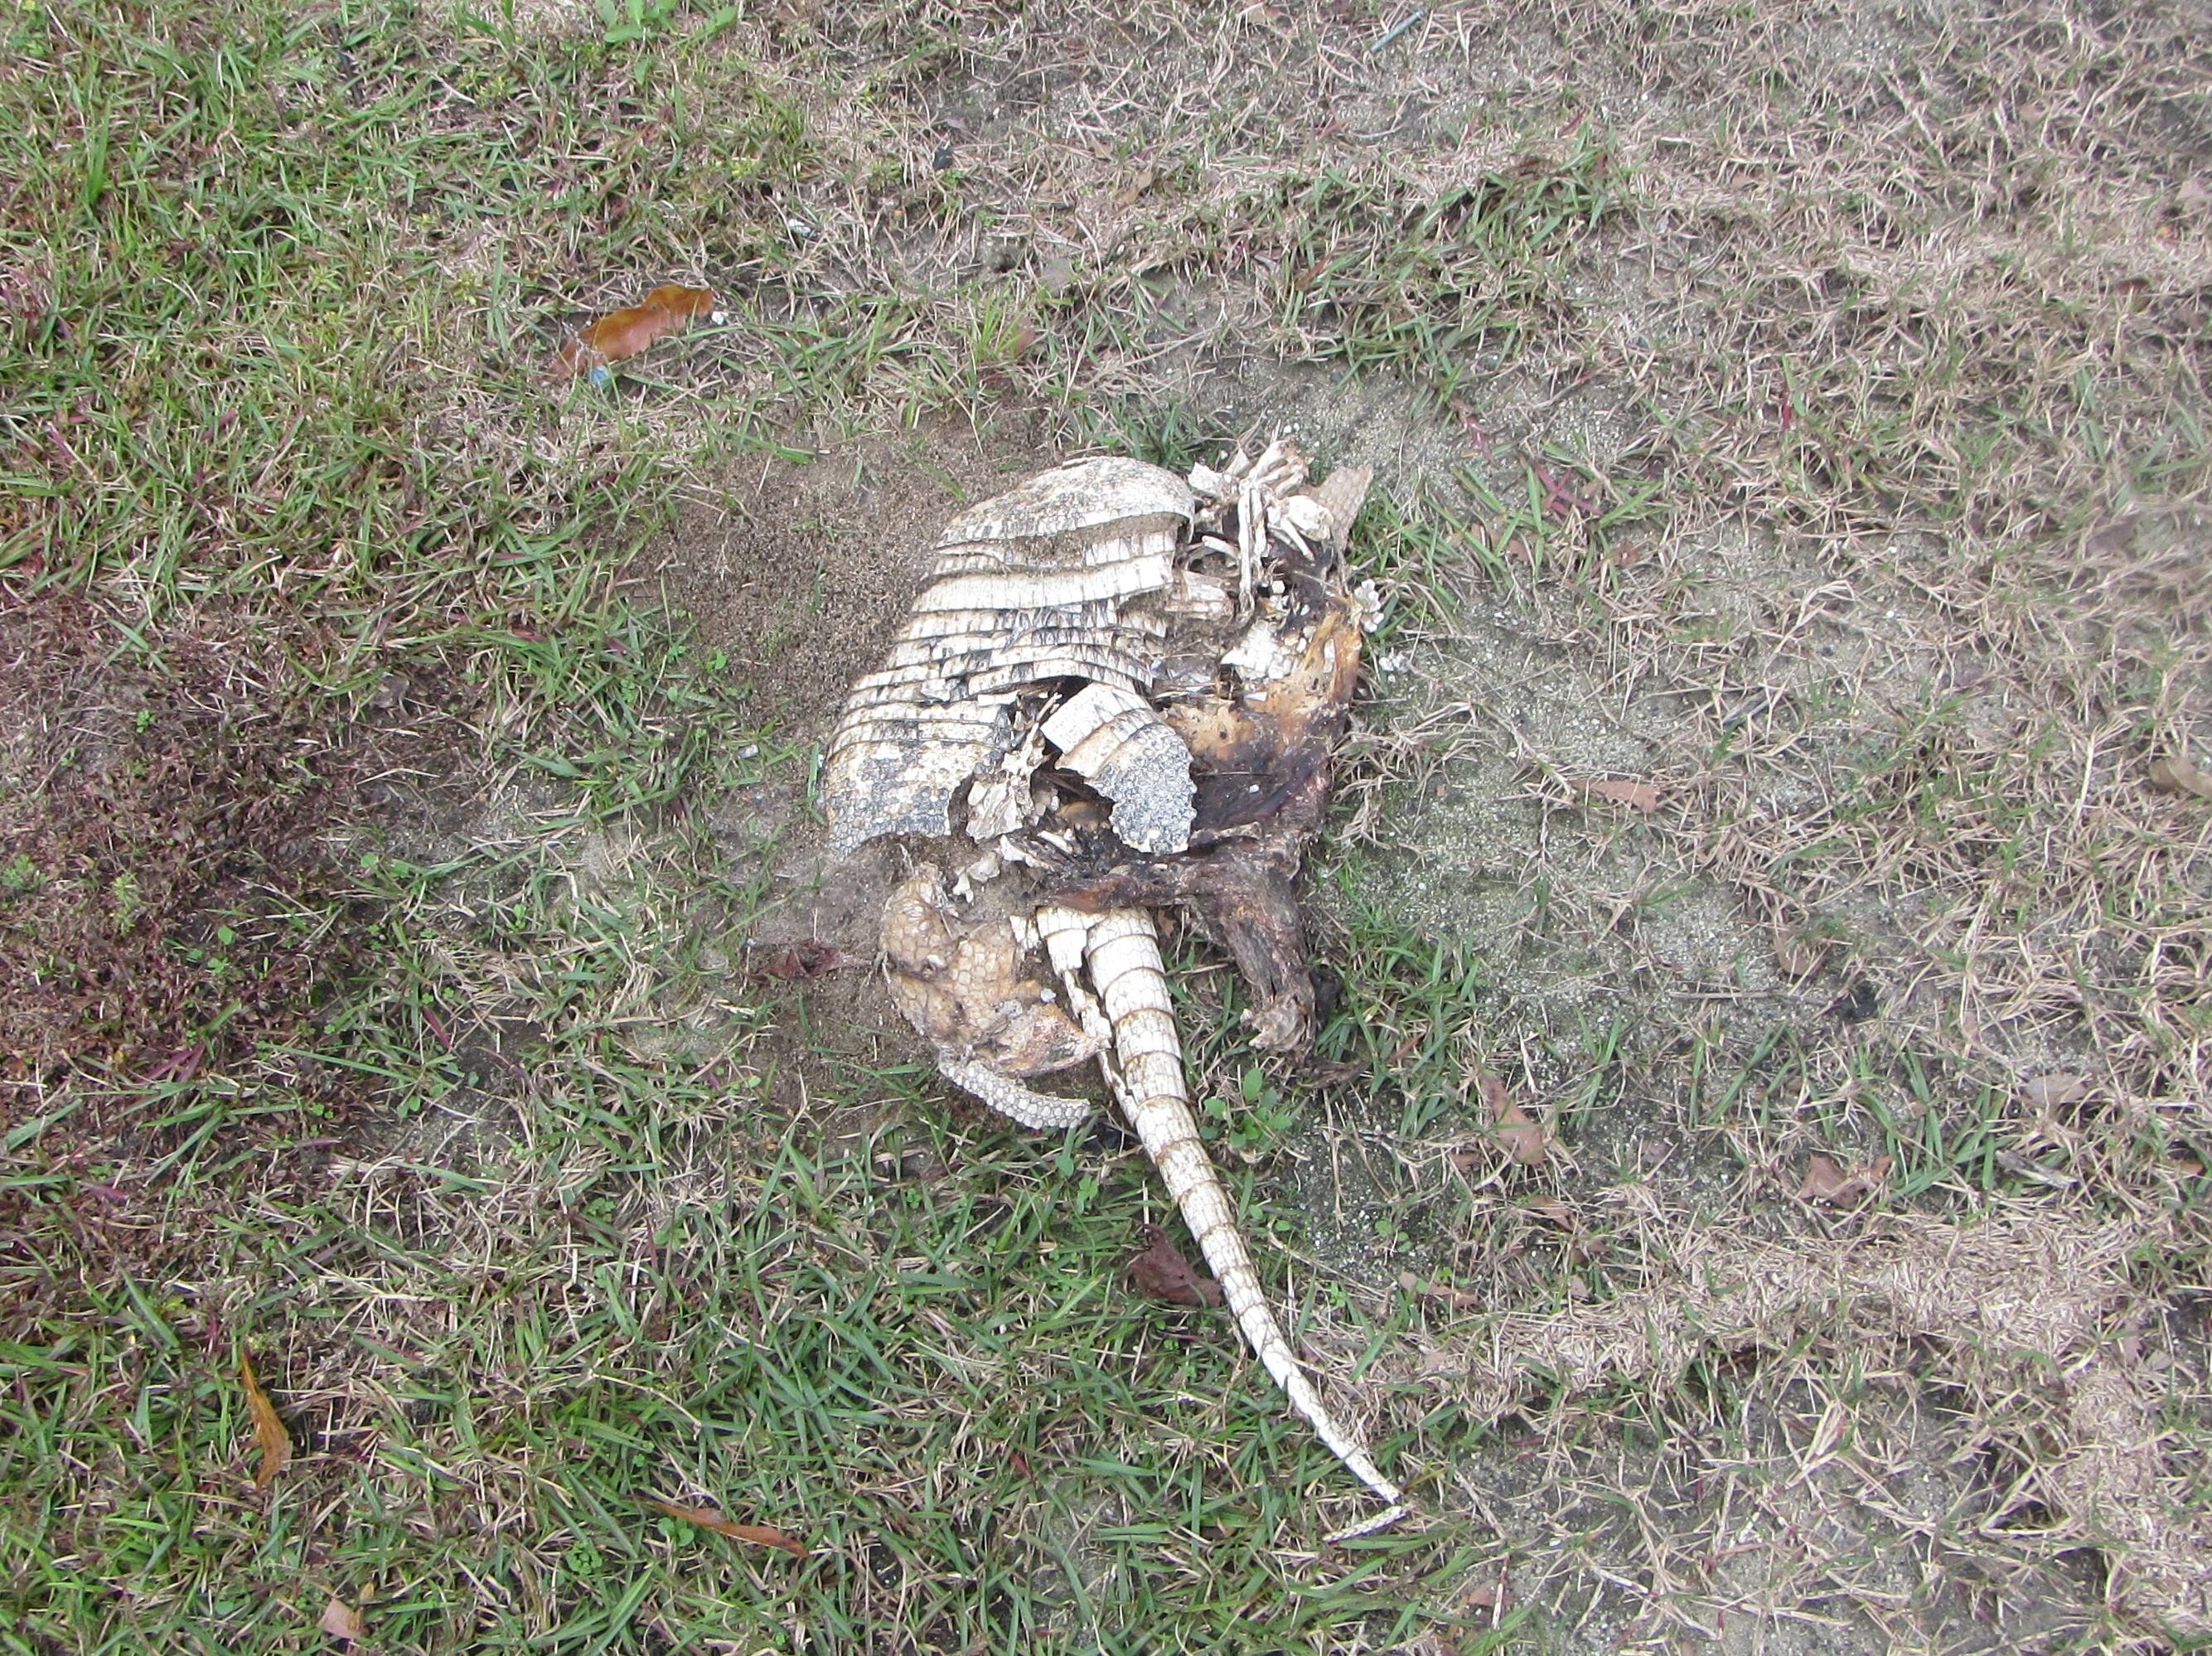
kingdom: Animalia
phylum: Chordata
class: Mammalia
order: Cingulata
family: Dasypodidae
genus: Dasypus
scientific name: Dasypus novemcinctus
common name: armadillo
